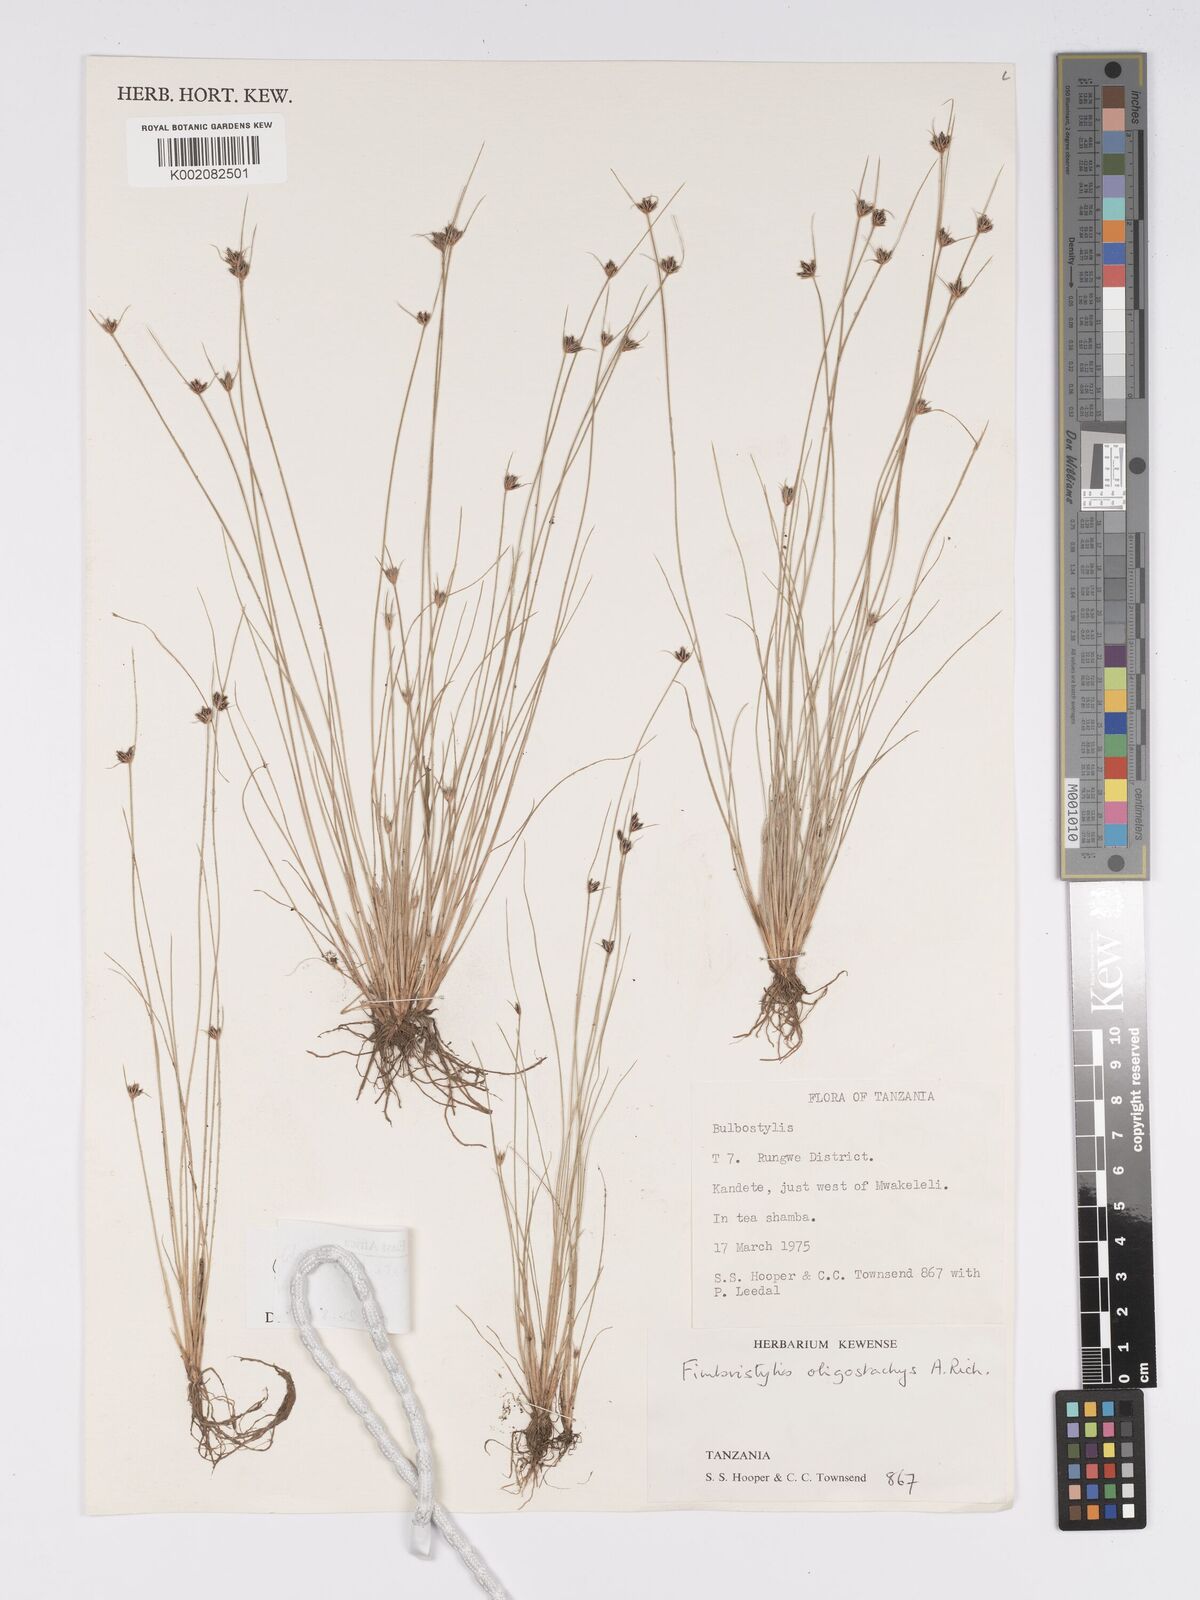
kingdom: Plantae
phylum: Tracheophyta
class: Liliopsida
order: Poales
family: Cyperaceae
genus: Bulbostylis
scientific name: Bulbostylis oligostachys
